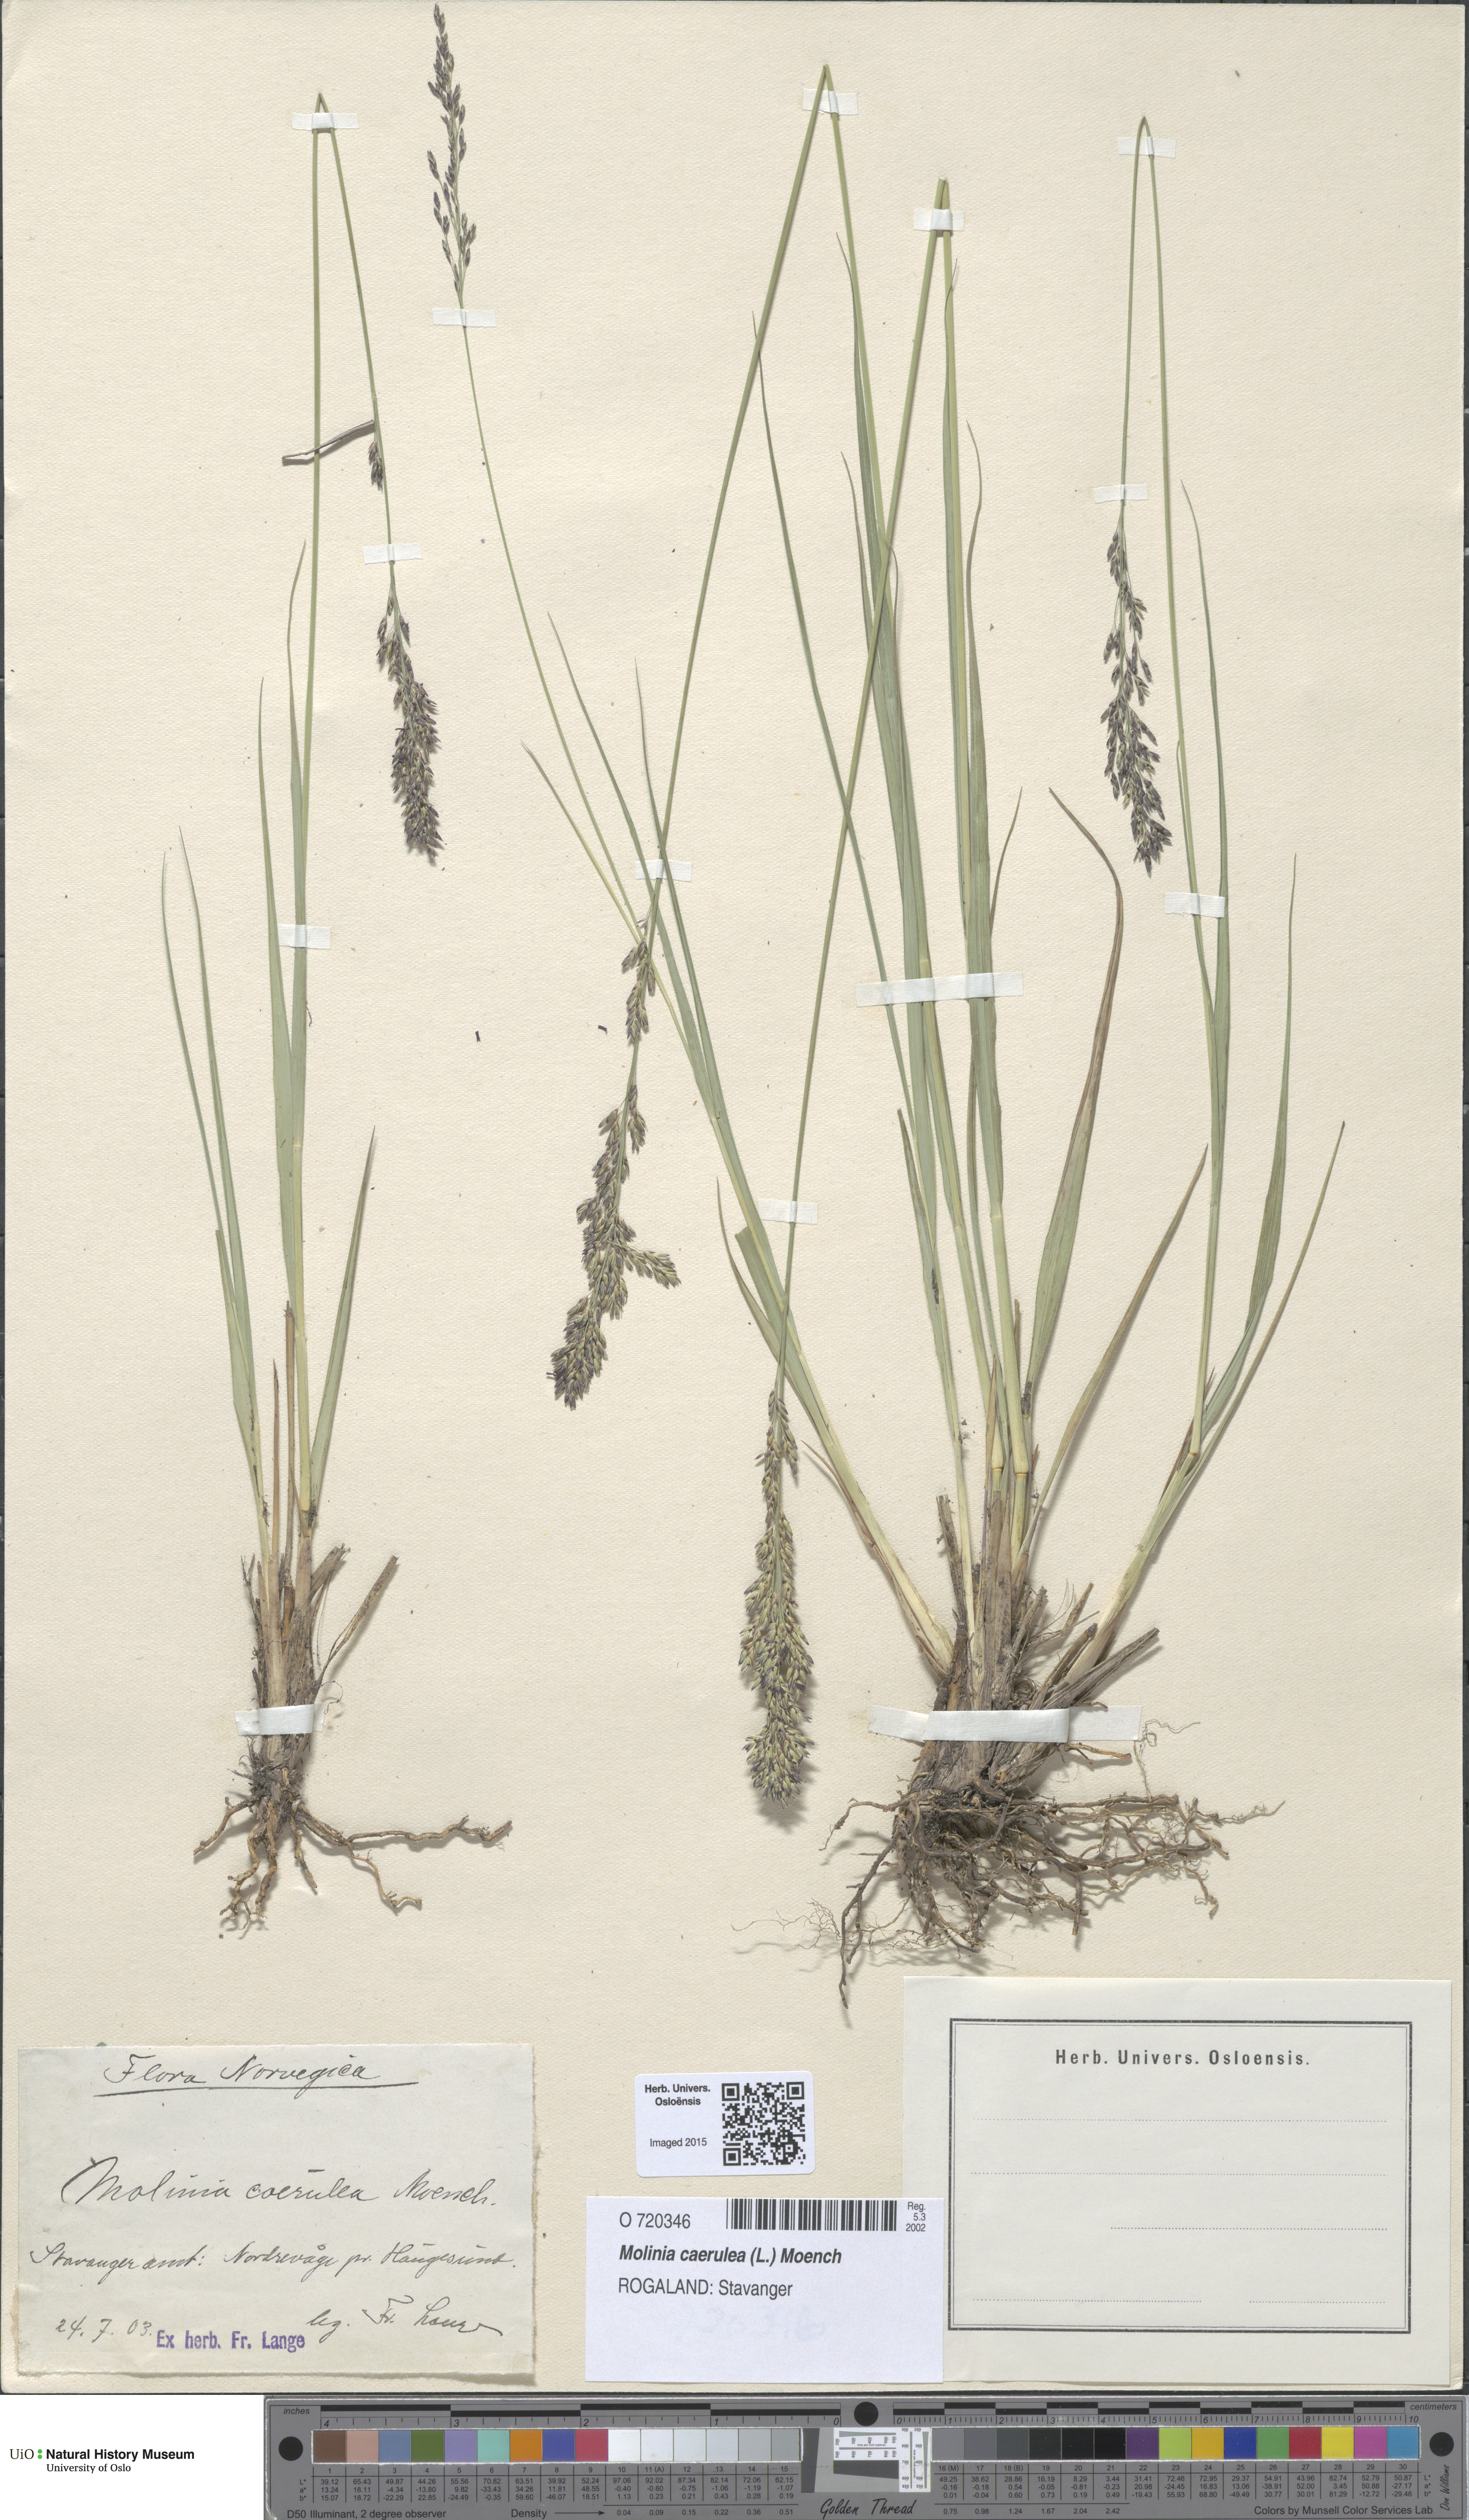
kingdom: Plantae
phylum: Tracheophyta
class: Liliopsida
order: Poales
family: Poaceae
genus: Molinia
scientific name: Molinia caerulea
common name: Purple moor-grass
